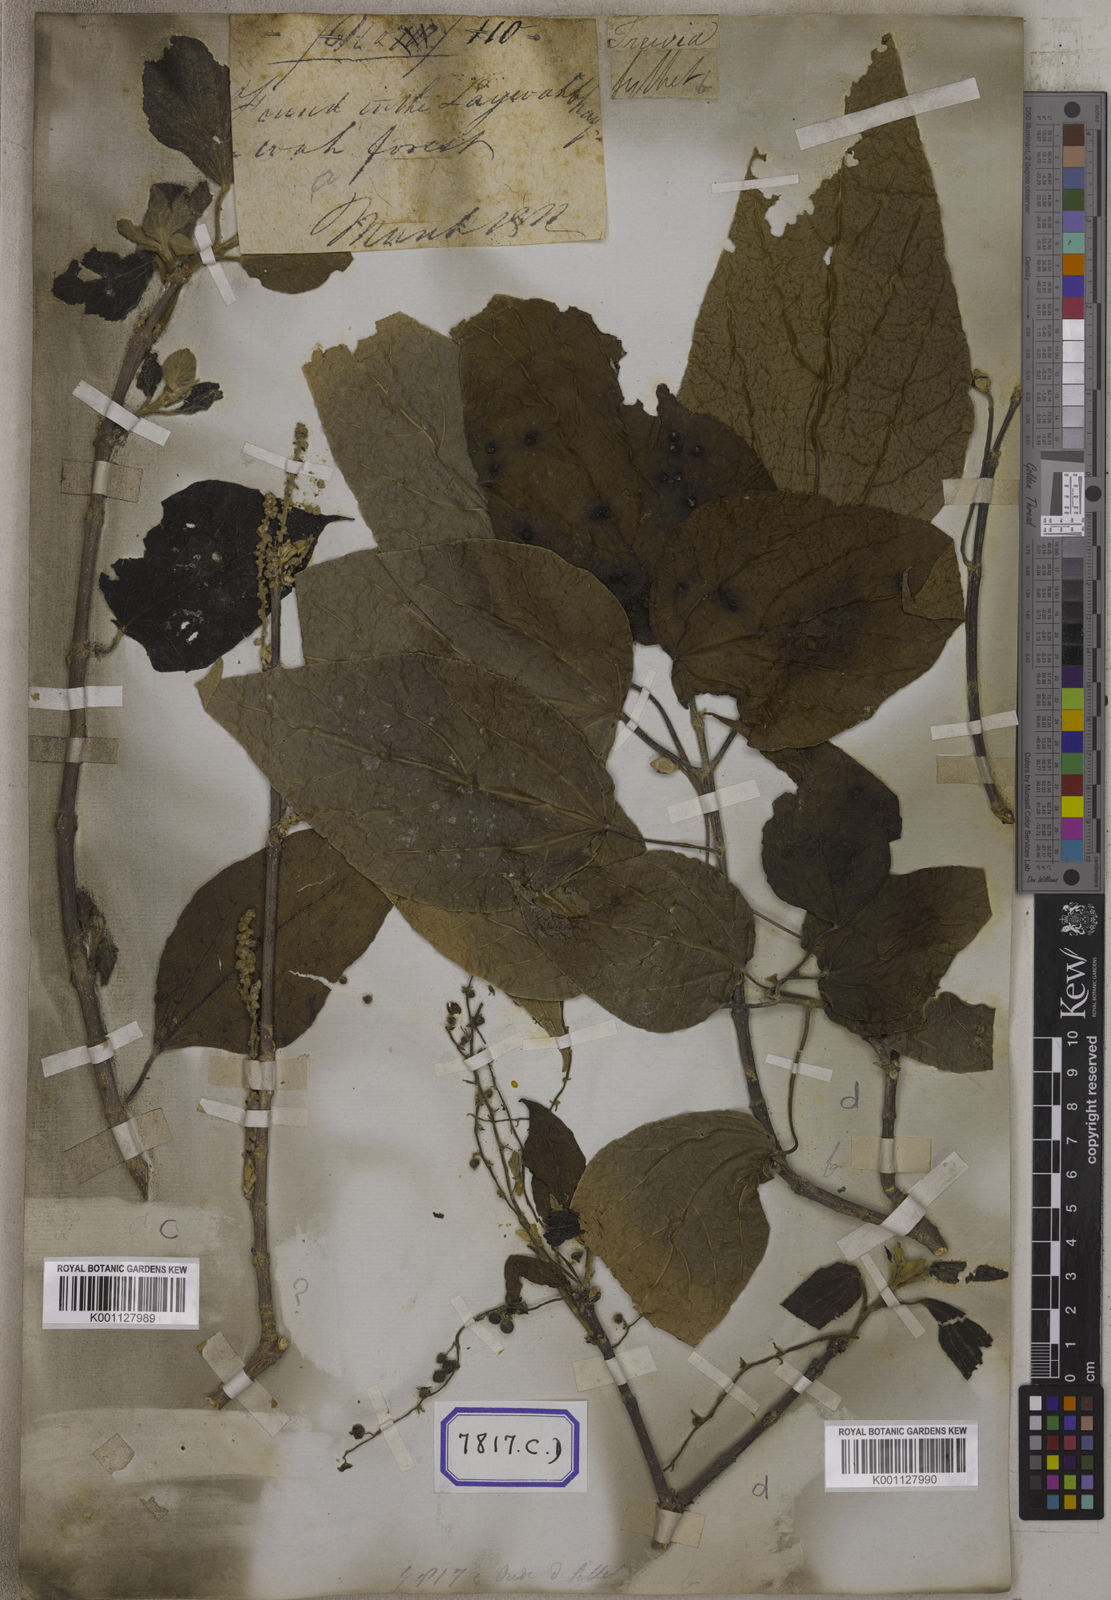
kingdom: Plantae
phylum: Tracheophyta
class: Magnoliopsida
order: Malpighiales
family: Euphorbiaceae
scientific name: Euphorbiaceae
